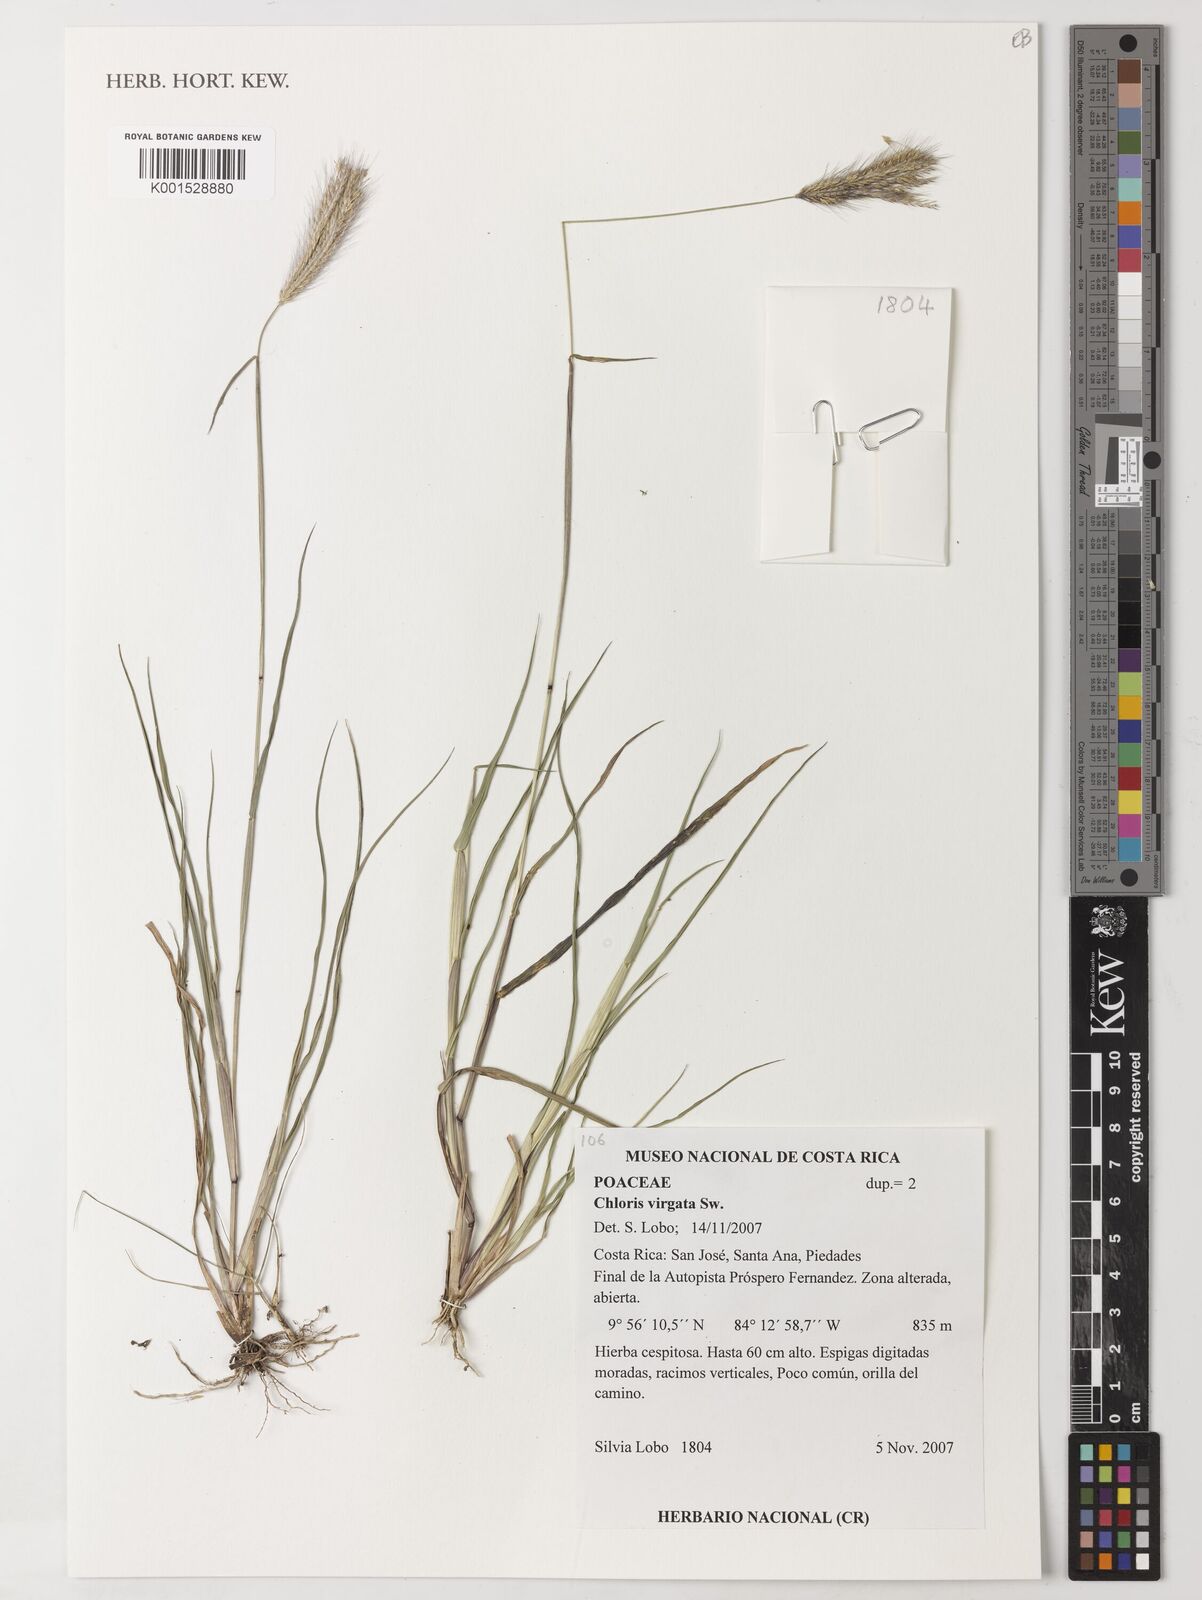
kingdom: Plantae
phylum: Tracheophyta
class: Liliopsida
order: Poales
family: Poaceae
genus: Chloris
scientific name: Chloris virgata
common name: Feathery rhodes-grass
